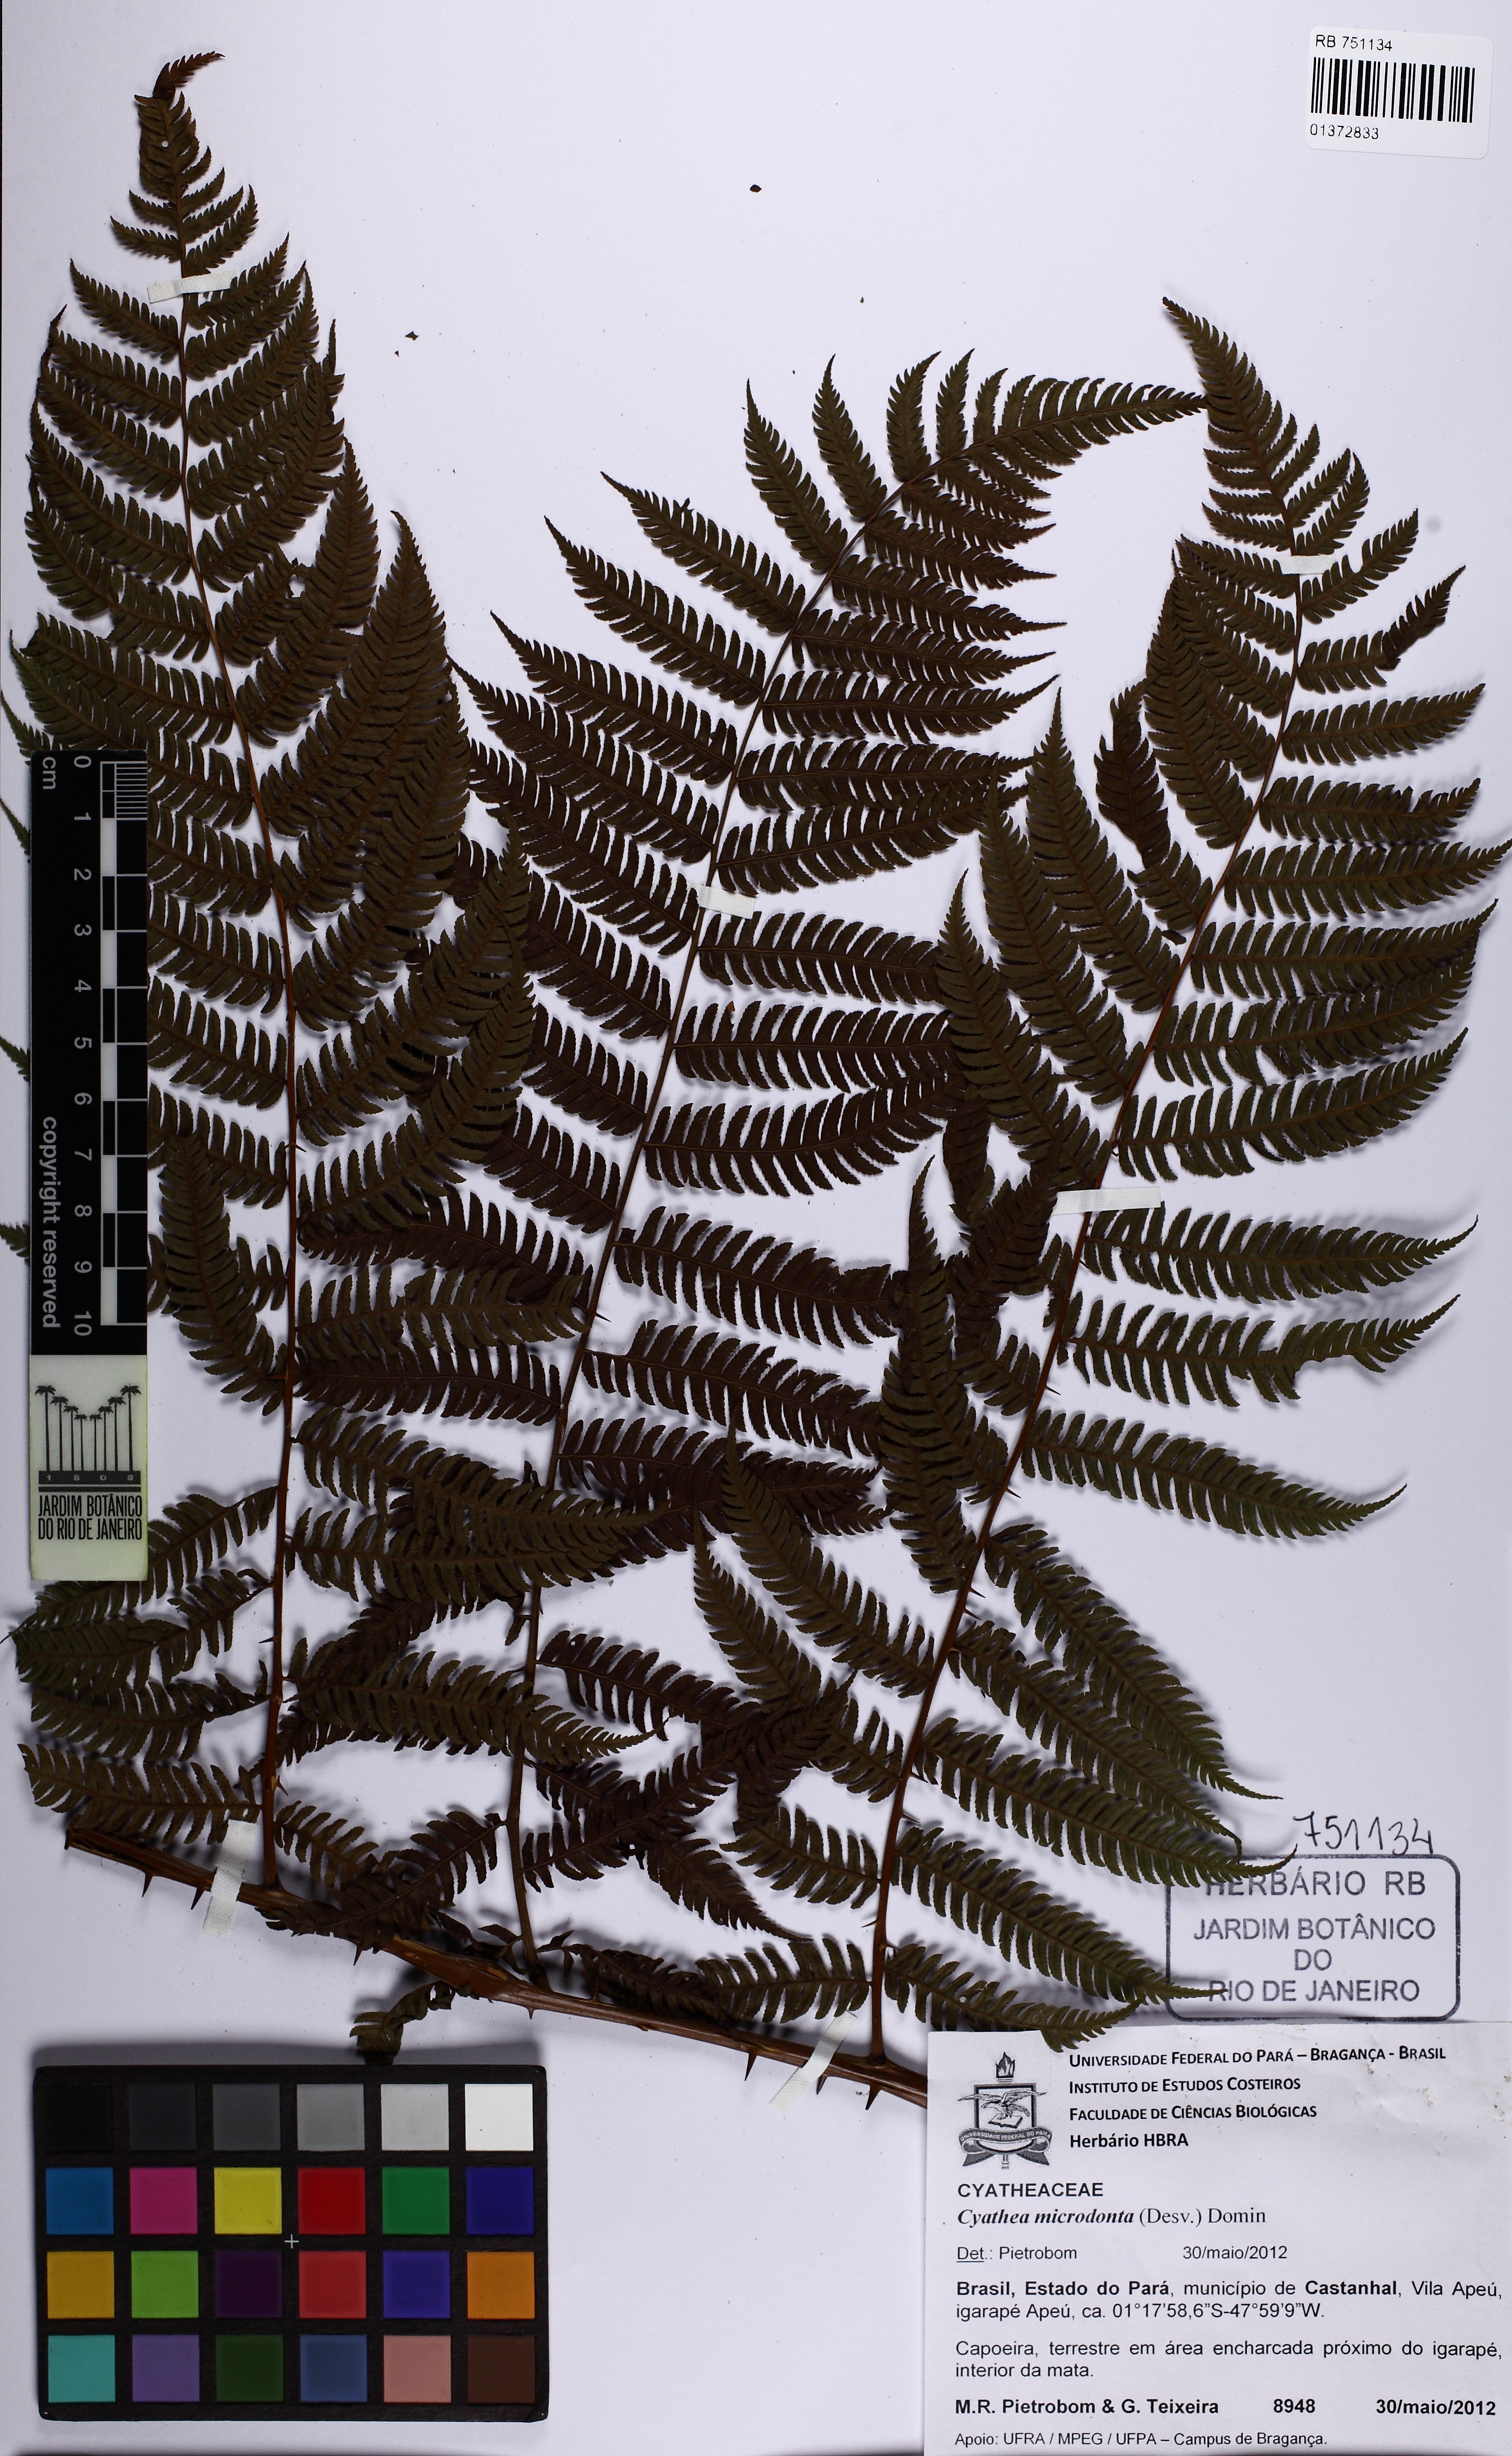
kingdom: Plantae
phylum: Tracheophyta
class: Polypodiopsida
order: Cyatheales
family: Cyatheaceae
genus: Cyathea
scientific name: Cyathea microdonta
